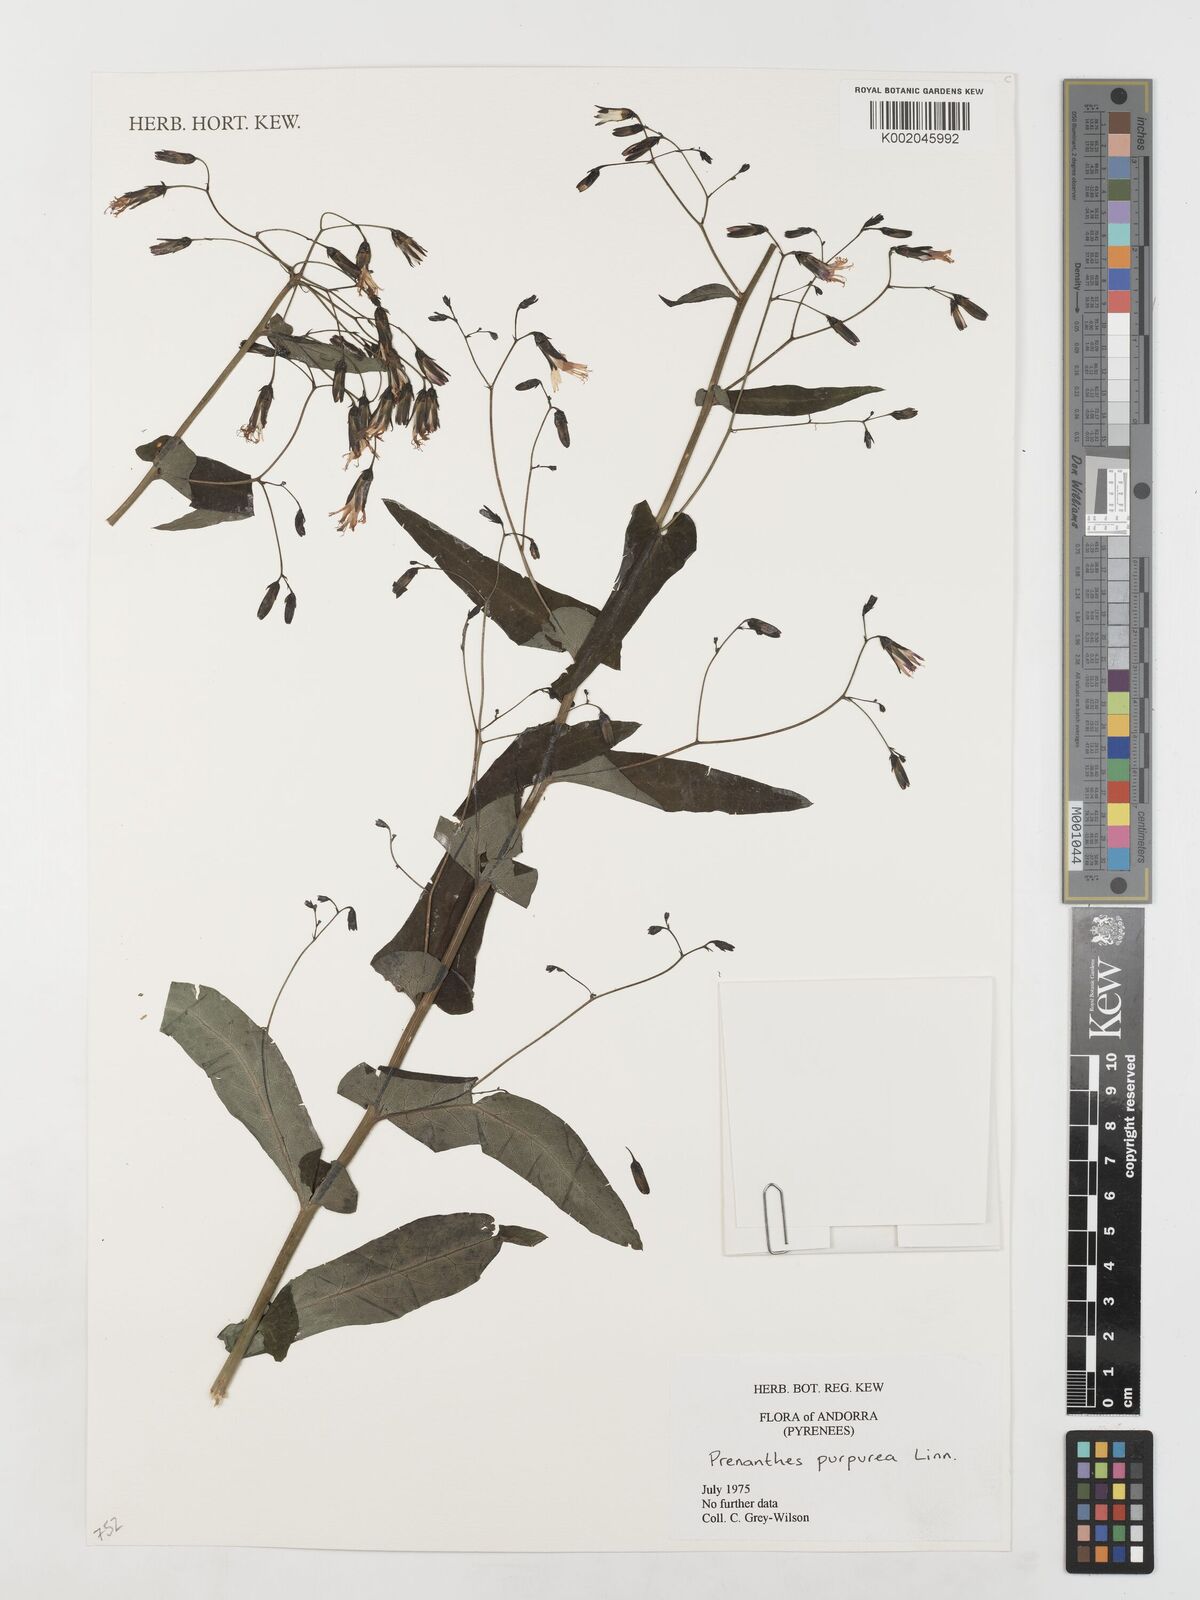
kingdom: Plantae
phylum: Tracheophyta
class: Magnoliopsida
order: Asterales
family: Asteraceae
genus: Prenanthes
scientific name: Prenanthes purpurea
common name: Purple lettuce
